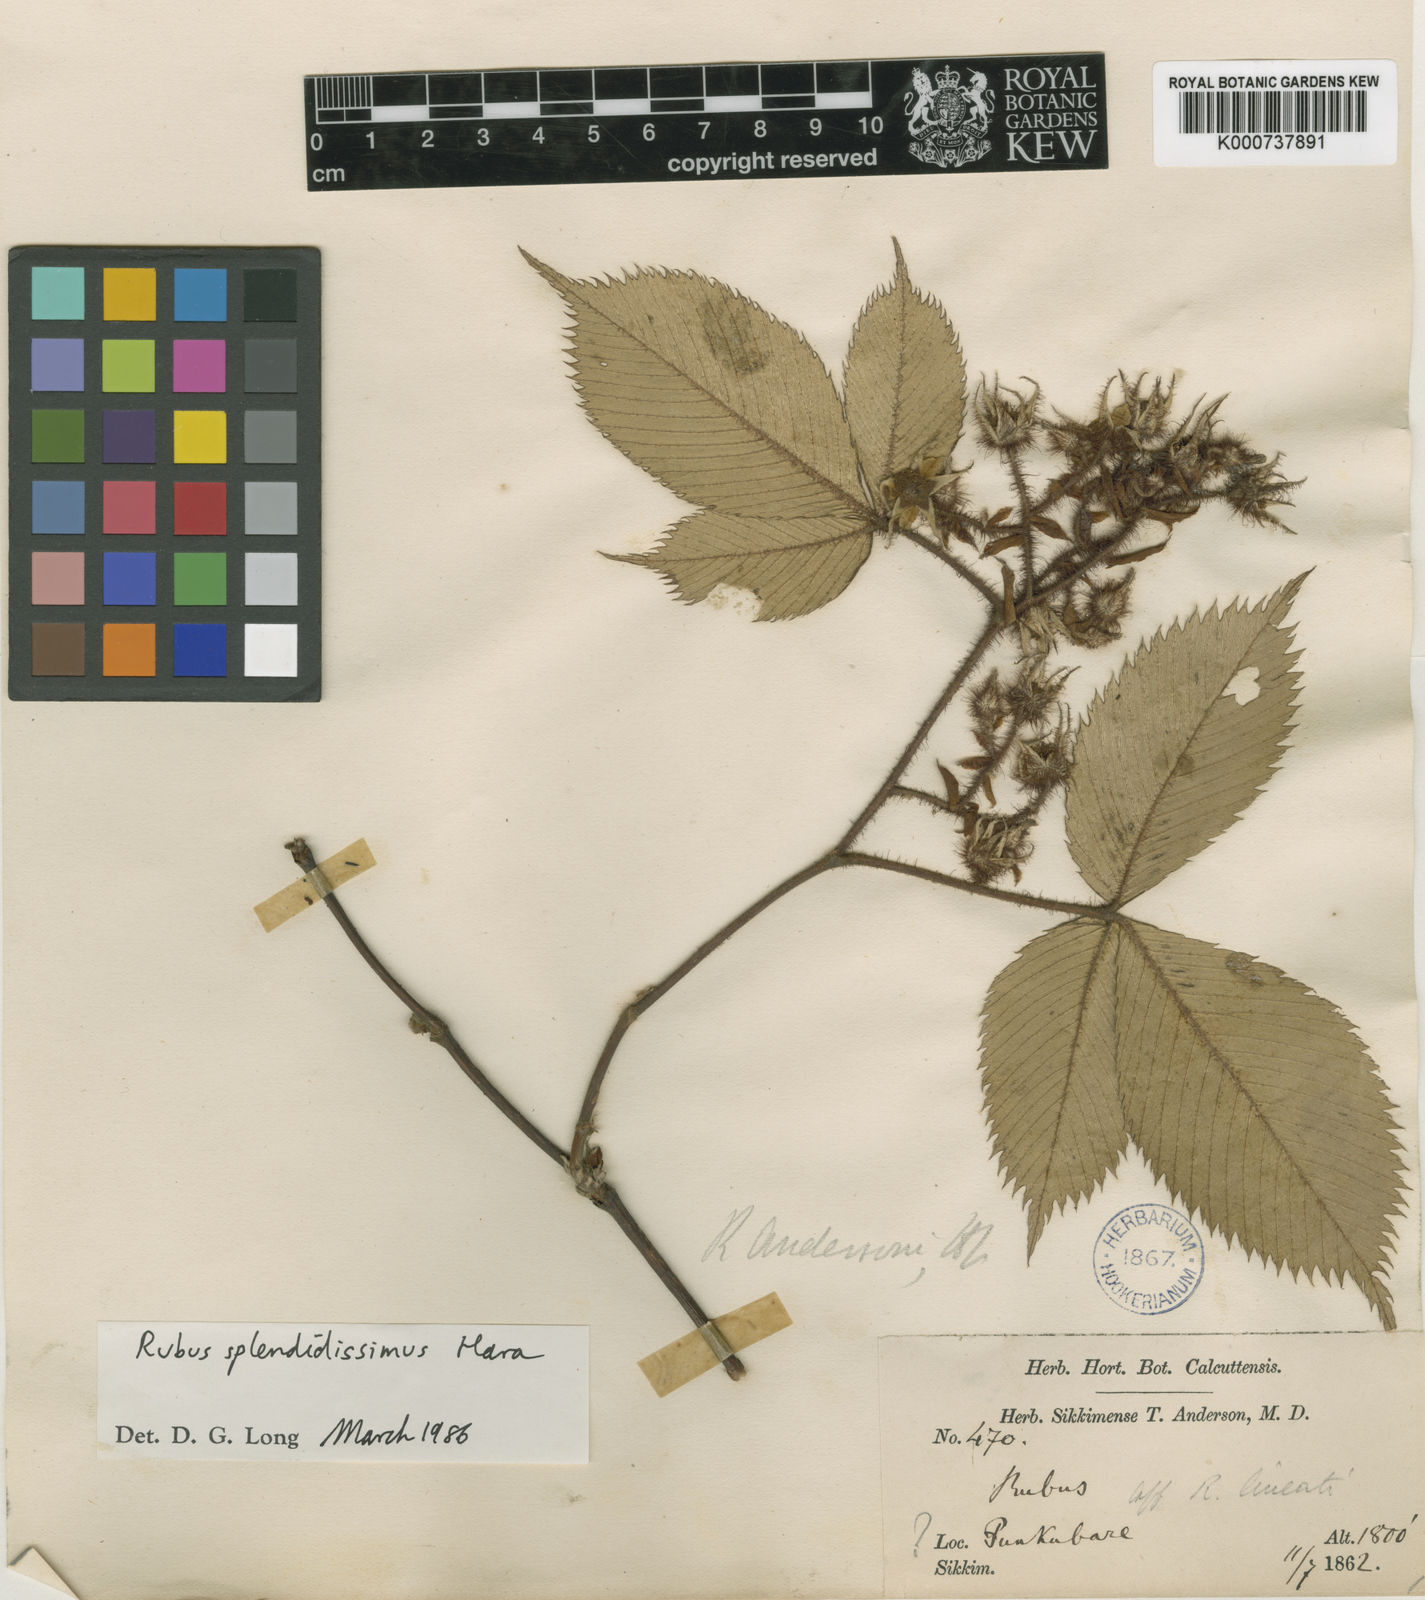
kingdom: Plantae
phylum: Tracheophyta
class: Magnoliopsida
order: Rosales
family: Rosaceae
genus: Rubus
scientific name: Rubus splendidissimus
